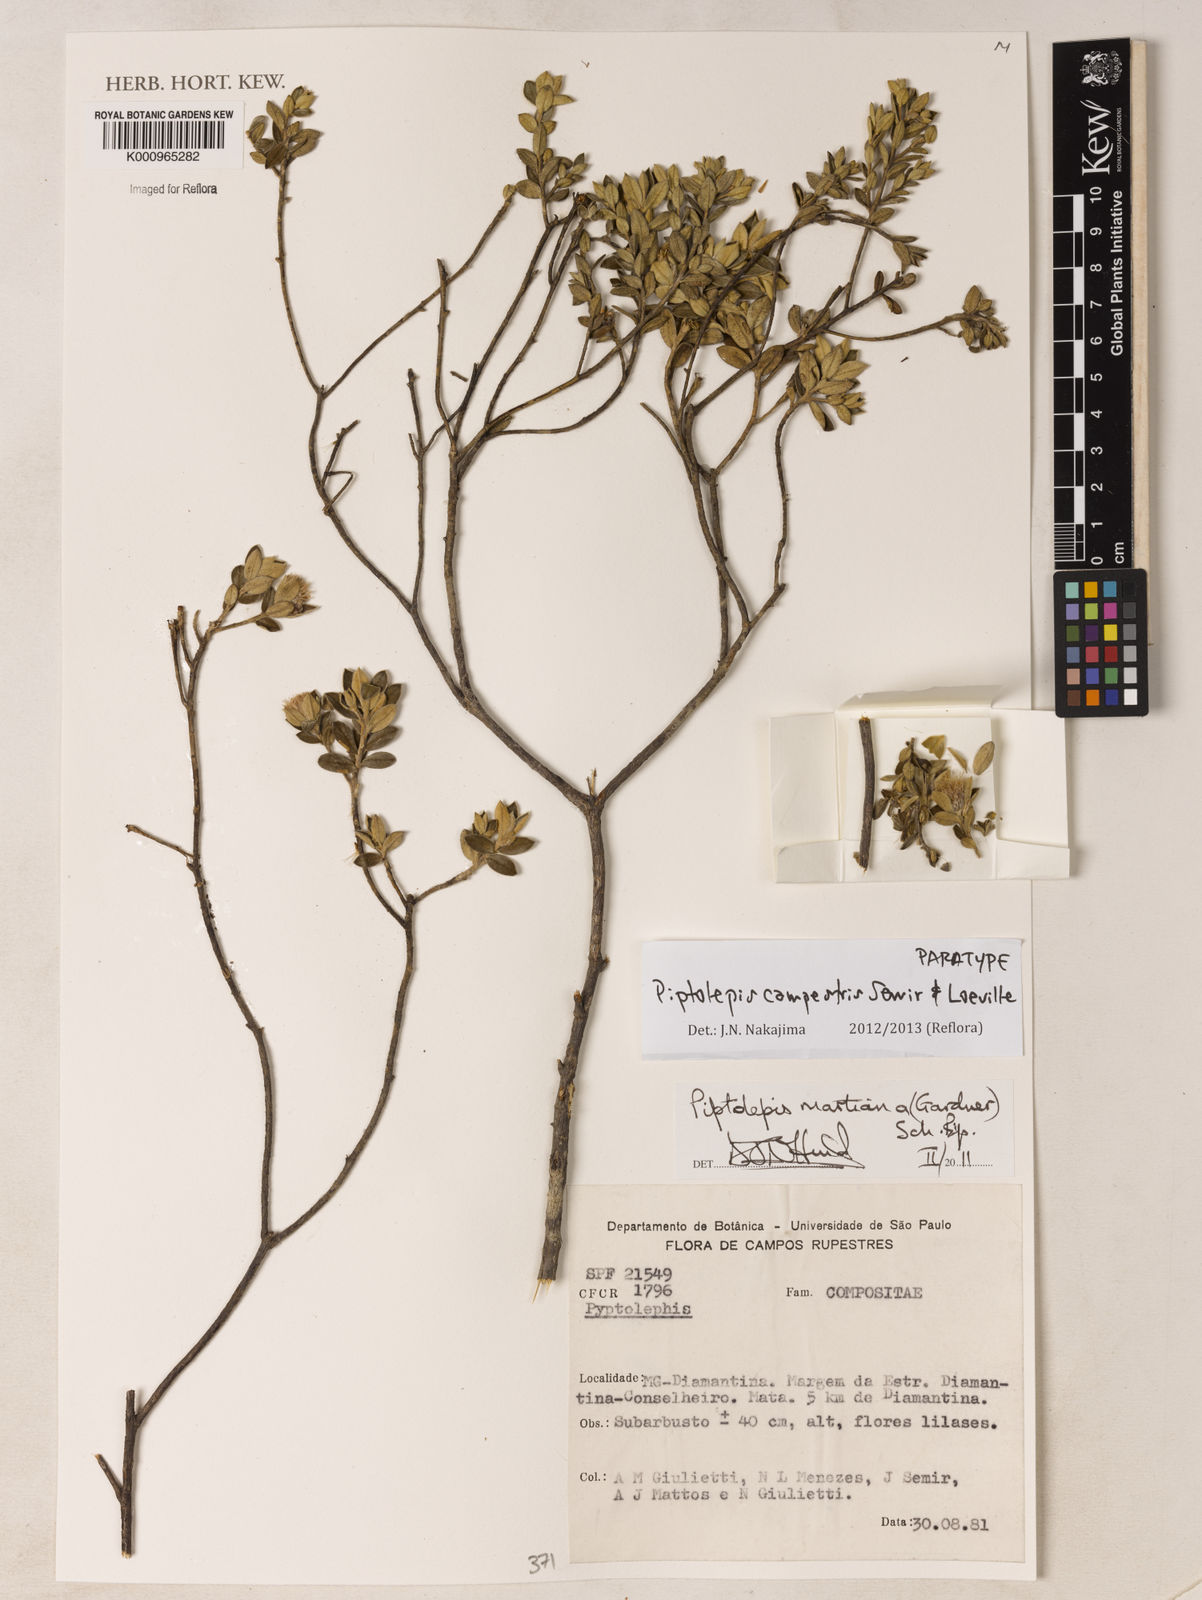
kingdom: Plantae
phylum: Tracheophyta
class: Magnoliopsida
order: Asterales
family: Asteraceae
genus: Piptolepis
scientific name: Piptolepis campestris
